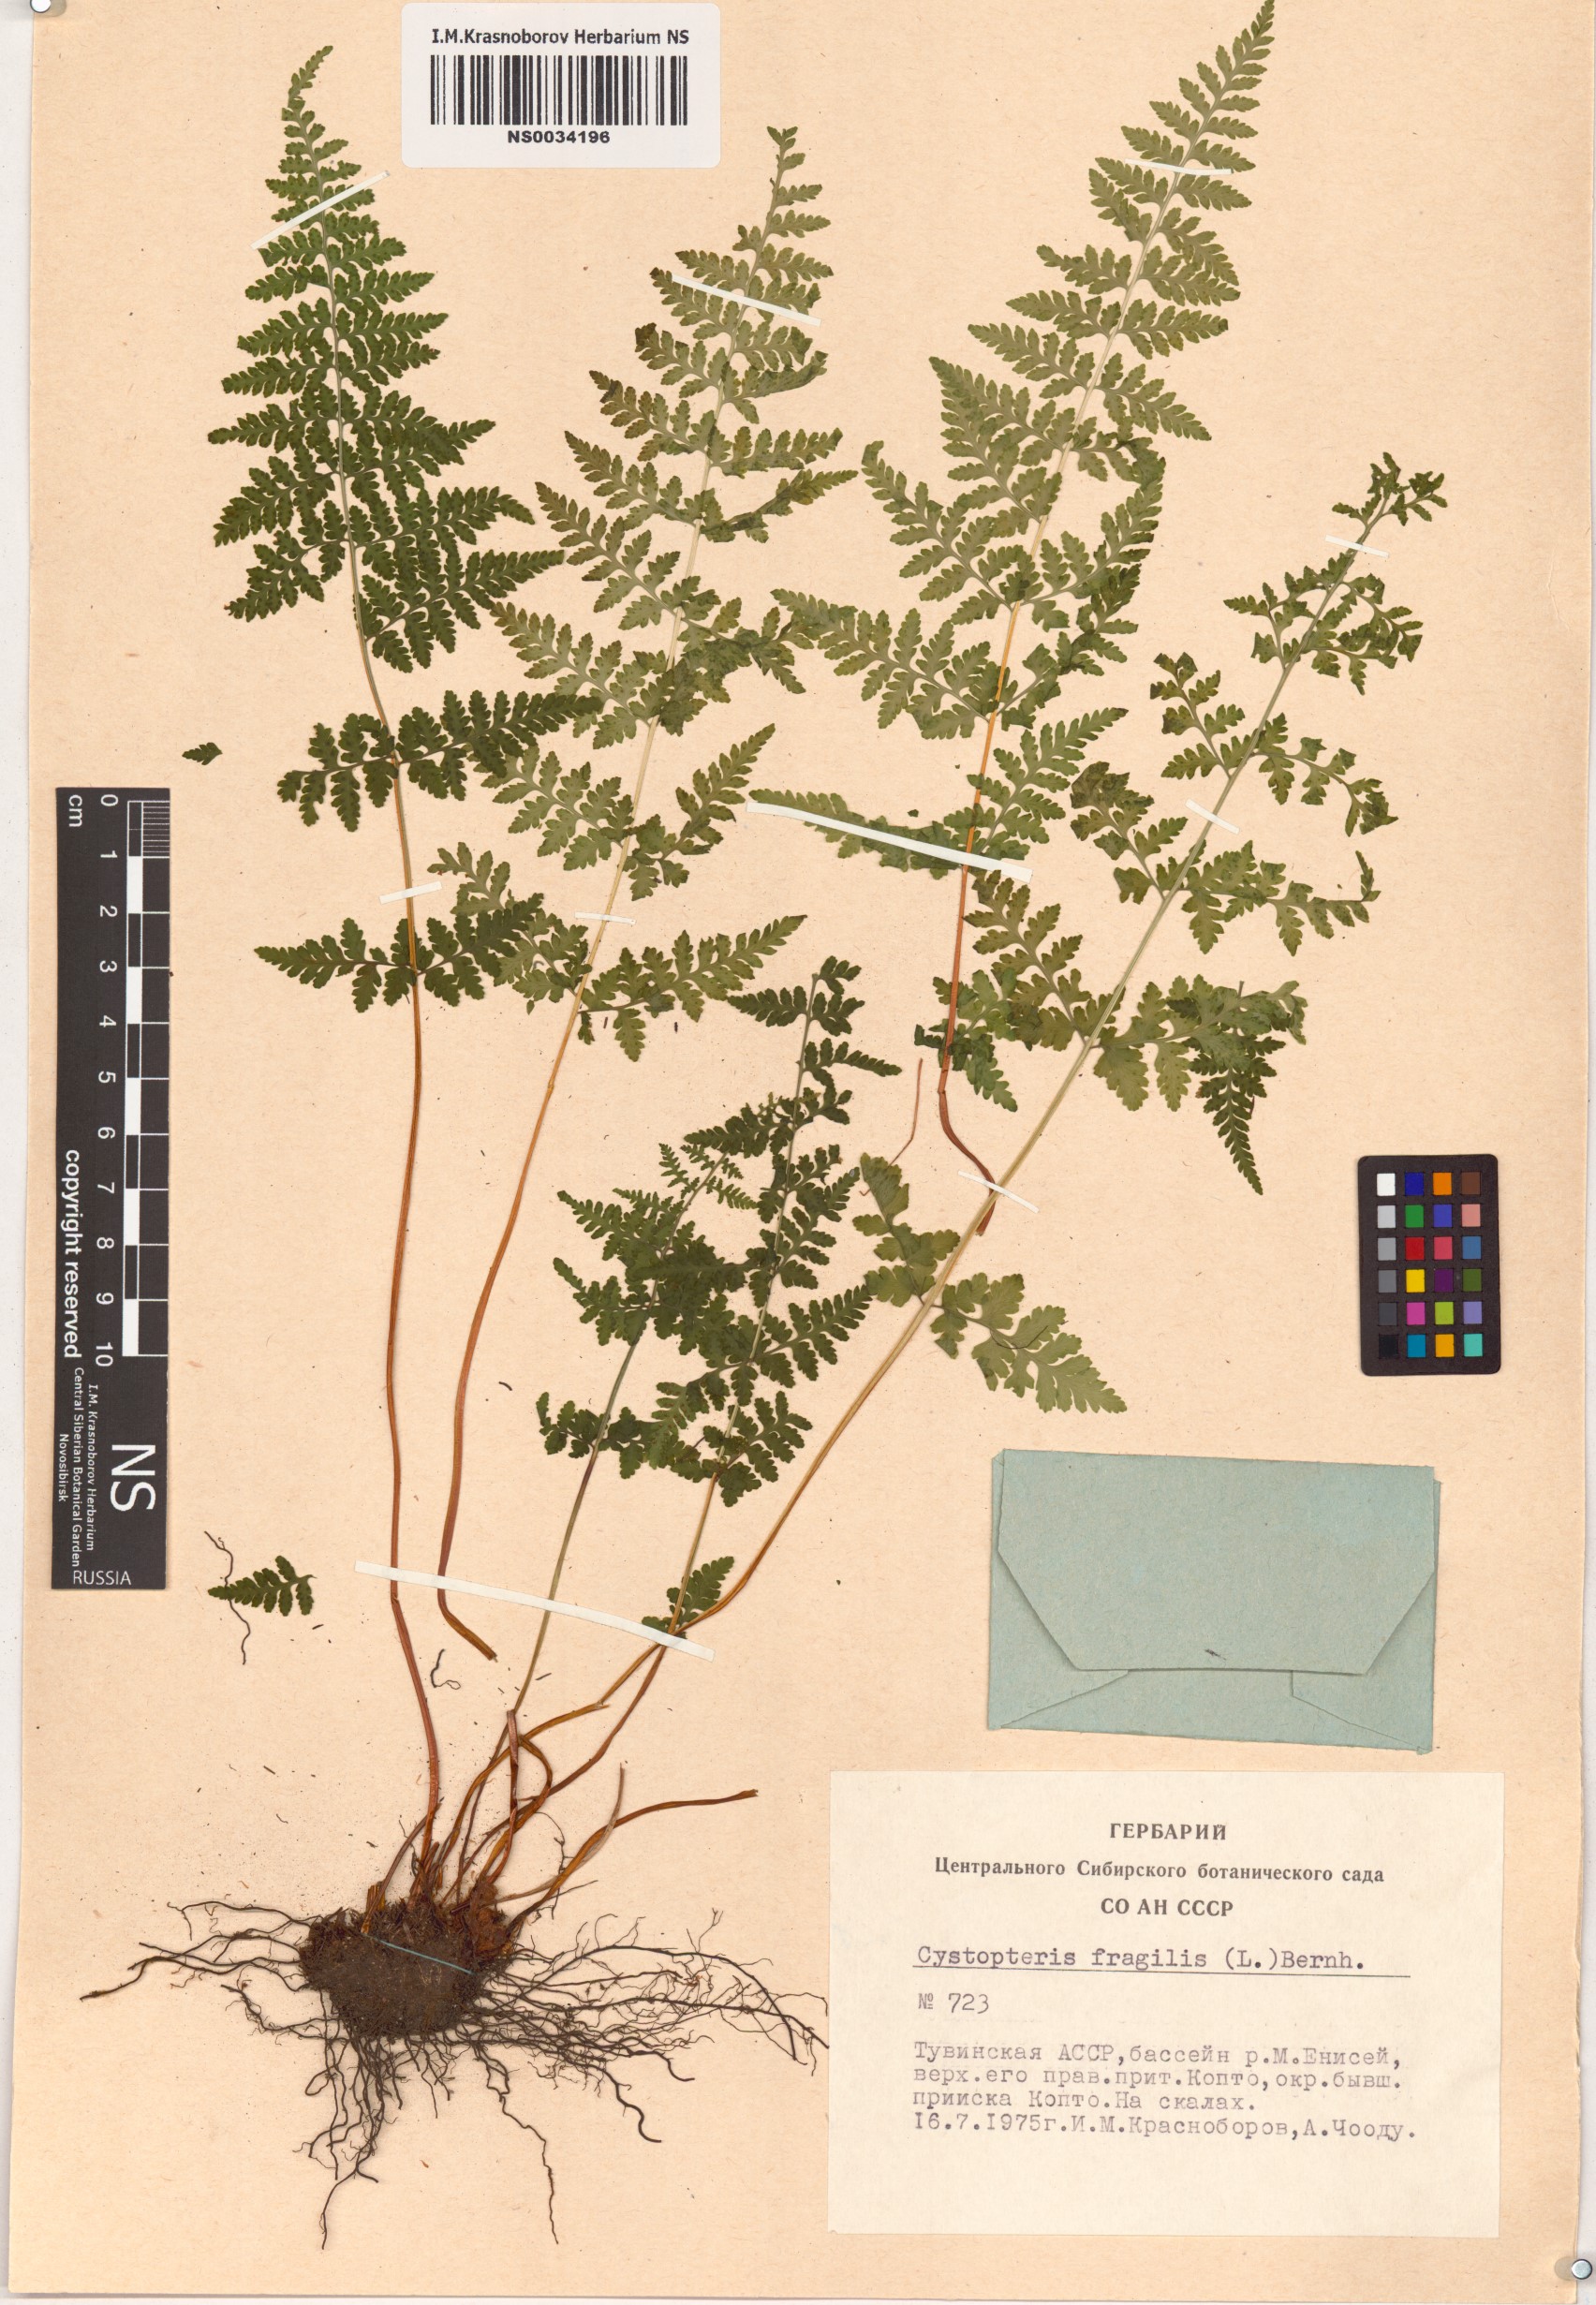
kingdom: Plantae
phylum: Tracheophyta
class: Polypodiopsida
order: Polypodiales
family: Cystopteridaceae
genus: Cystopteris
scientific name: Cystopteris fragilis
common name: Brittle bladder fern
